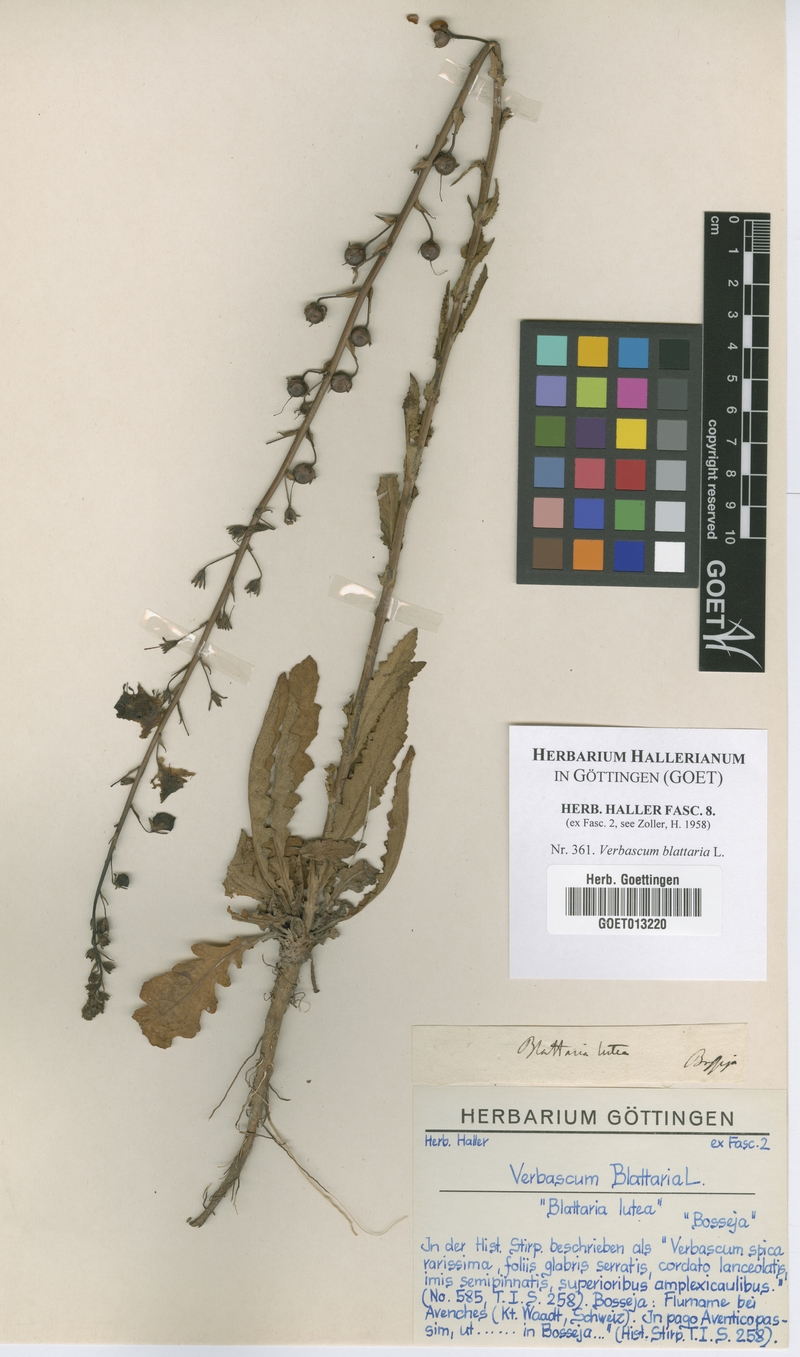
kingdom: Plantae
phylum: Tracheophyta
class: Magnoliopsida
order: Lamiales
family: Scrophulariaceae
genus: Verbascum
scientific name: Verbascum blattaria
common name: Moth mullein
